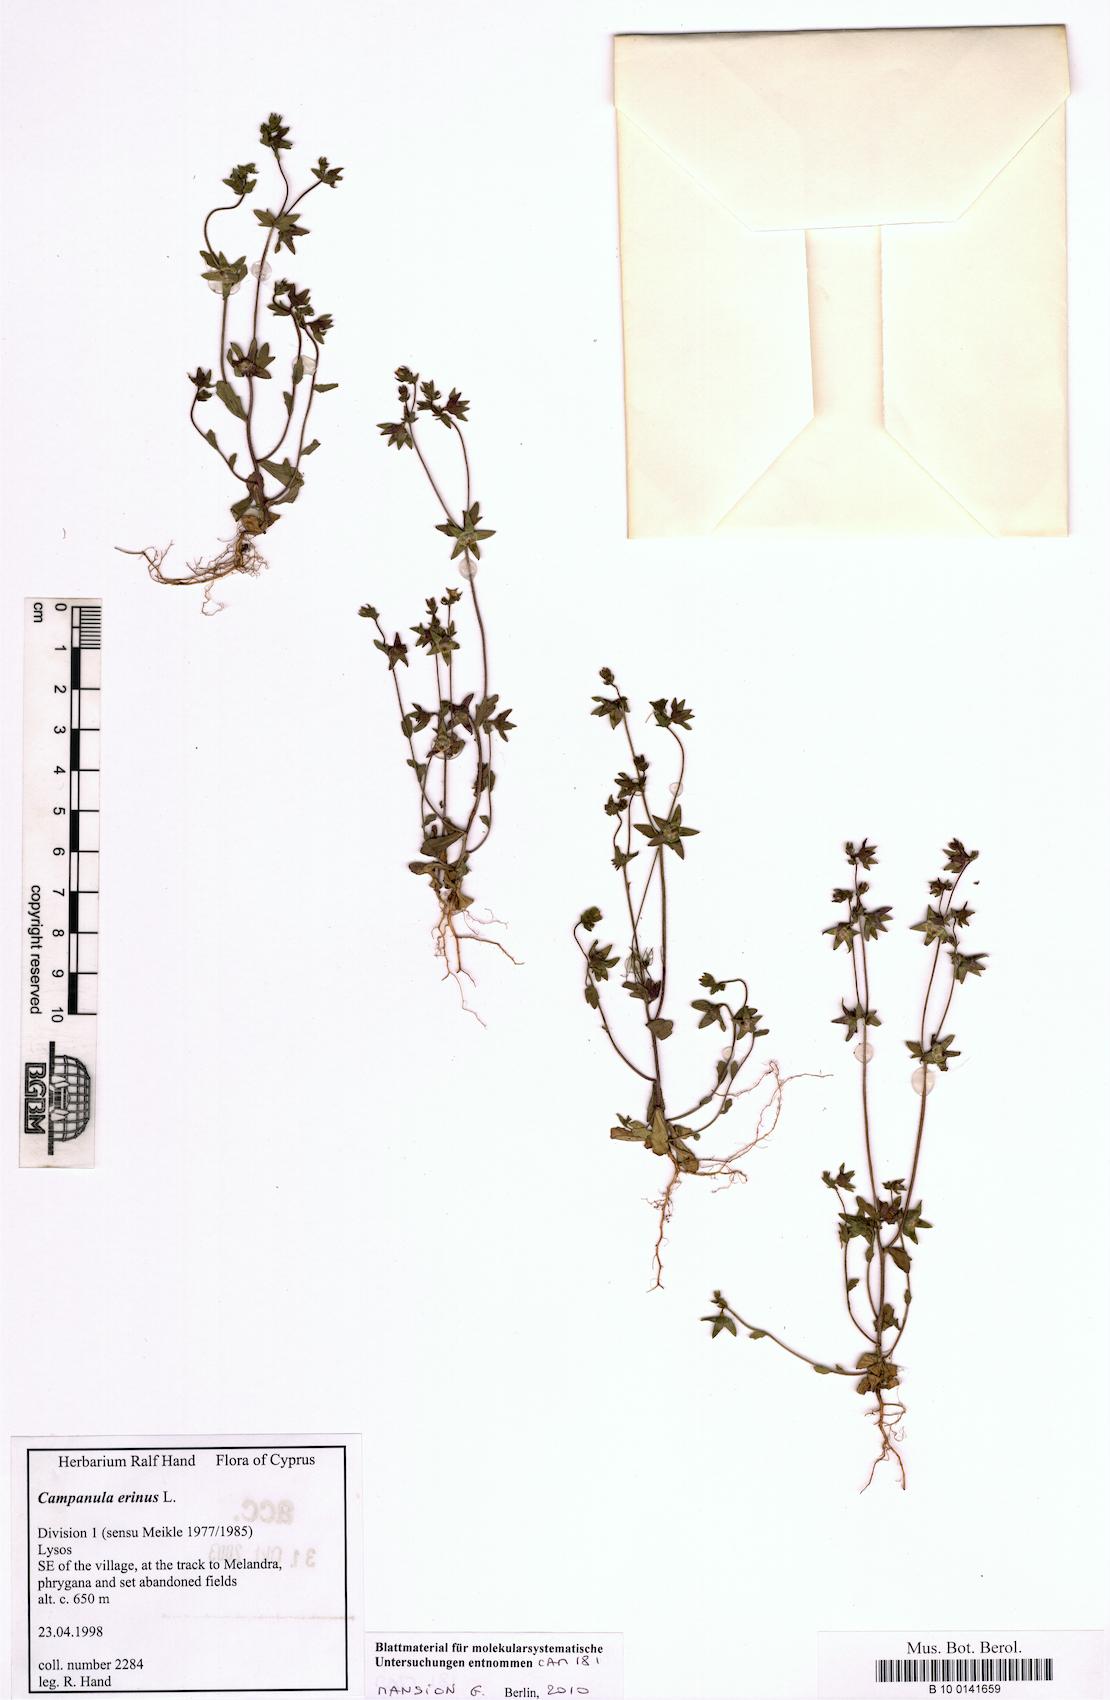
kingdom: Plantae
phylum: Tracheophyta
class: Magnoliopsida
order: Asterales
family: Campanulaceae
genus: Campanula
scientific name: Campanula erinus
